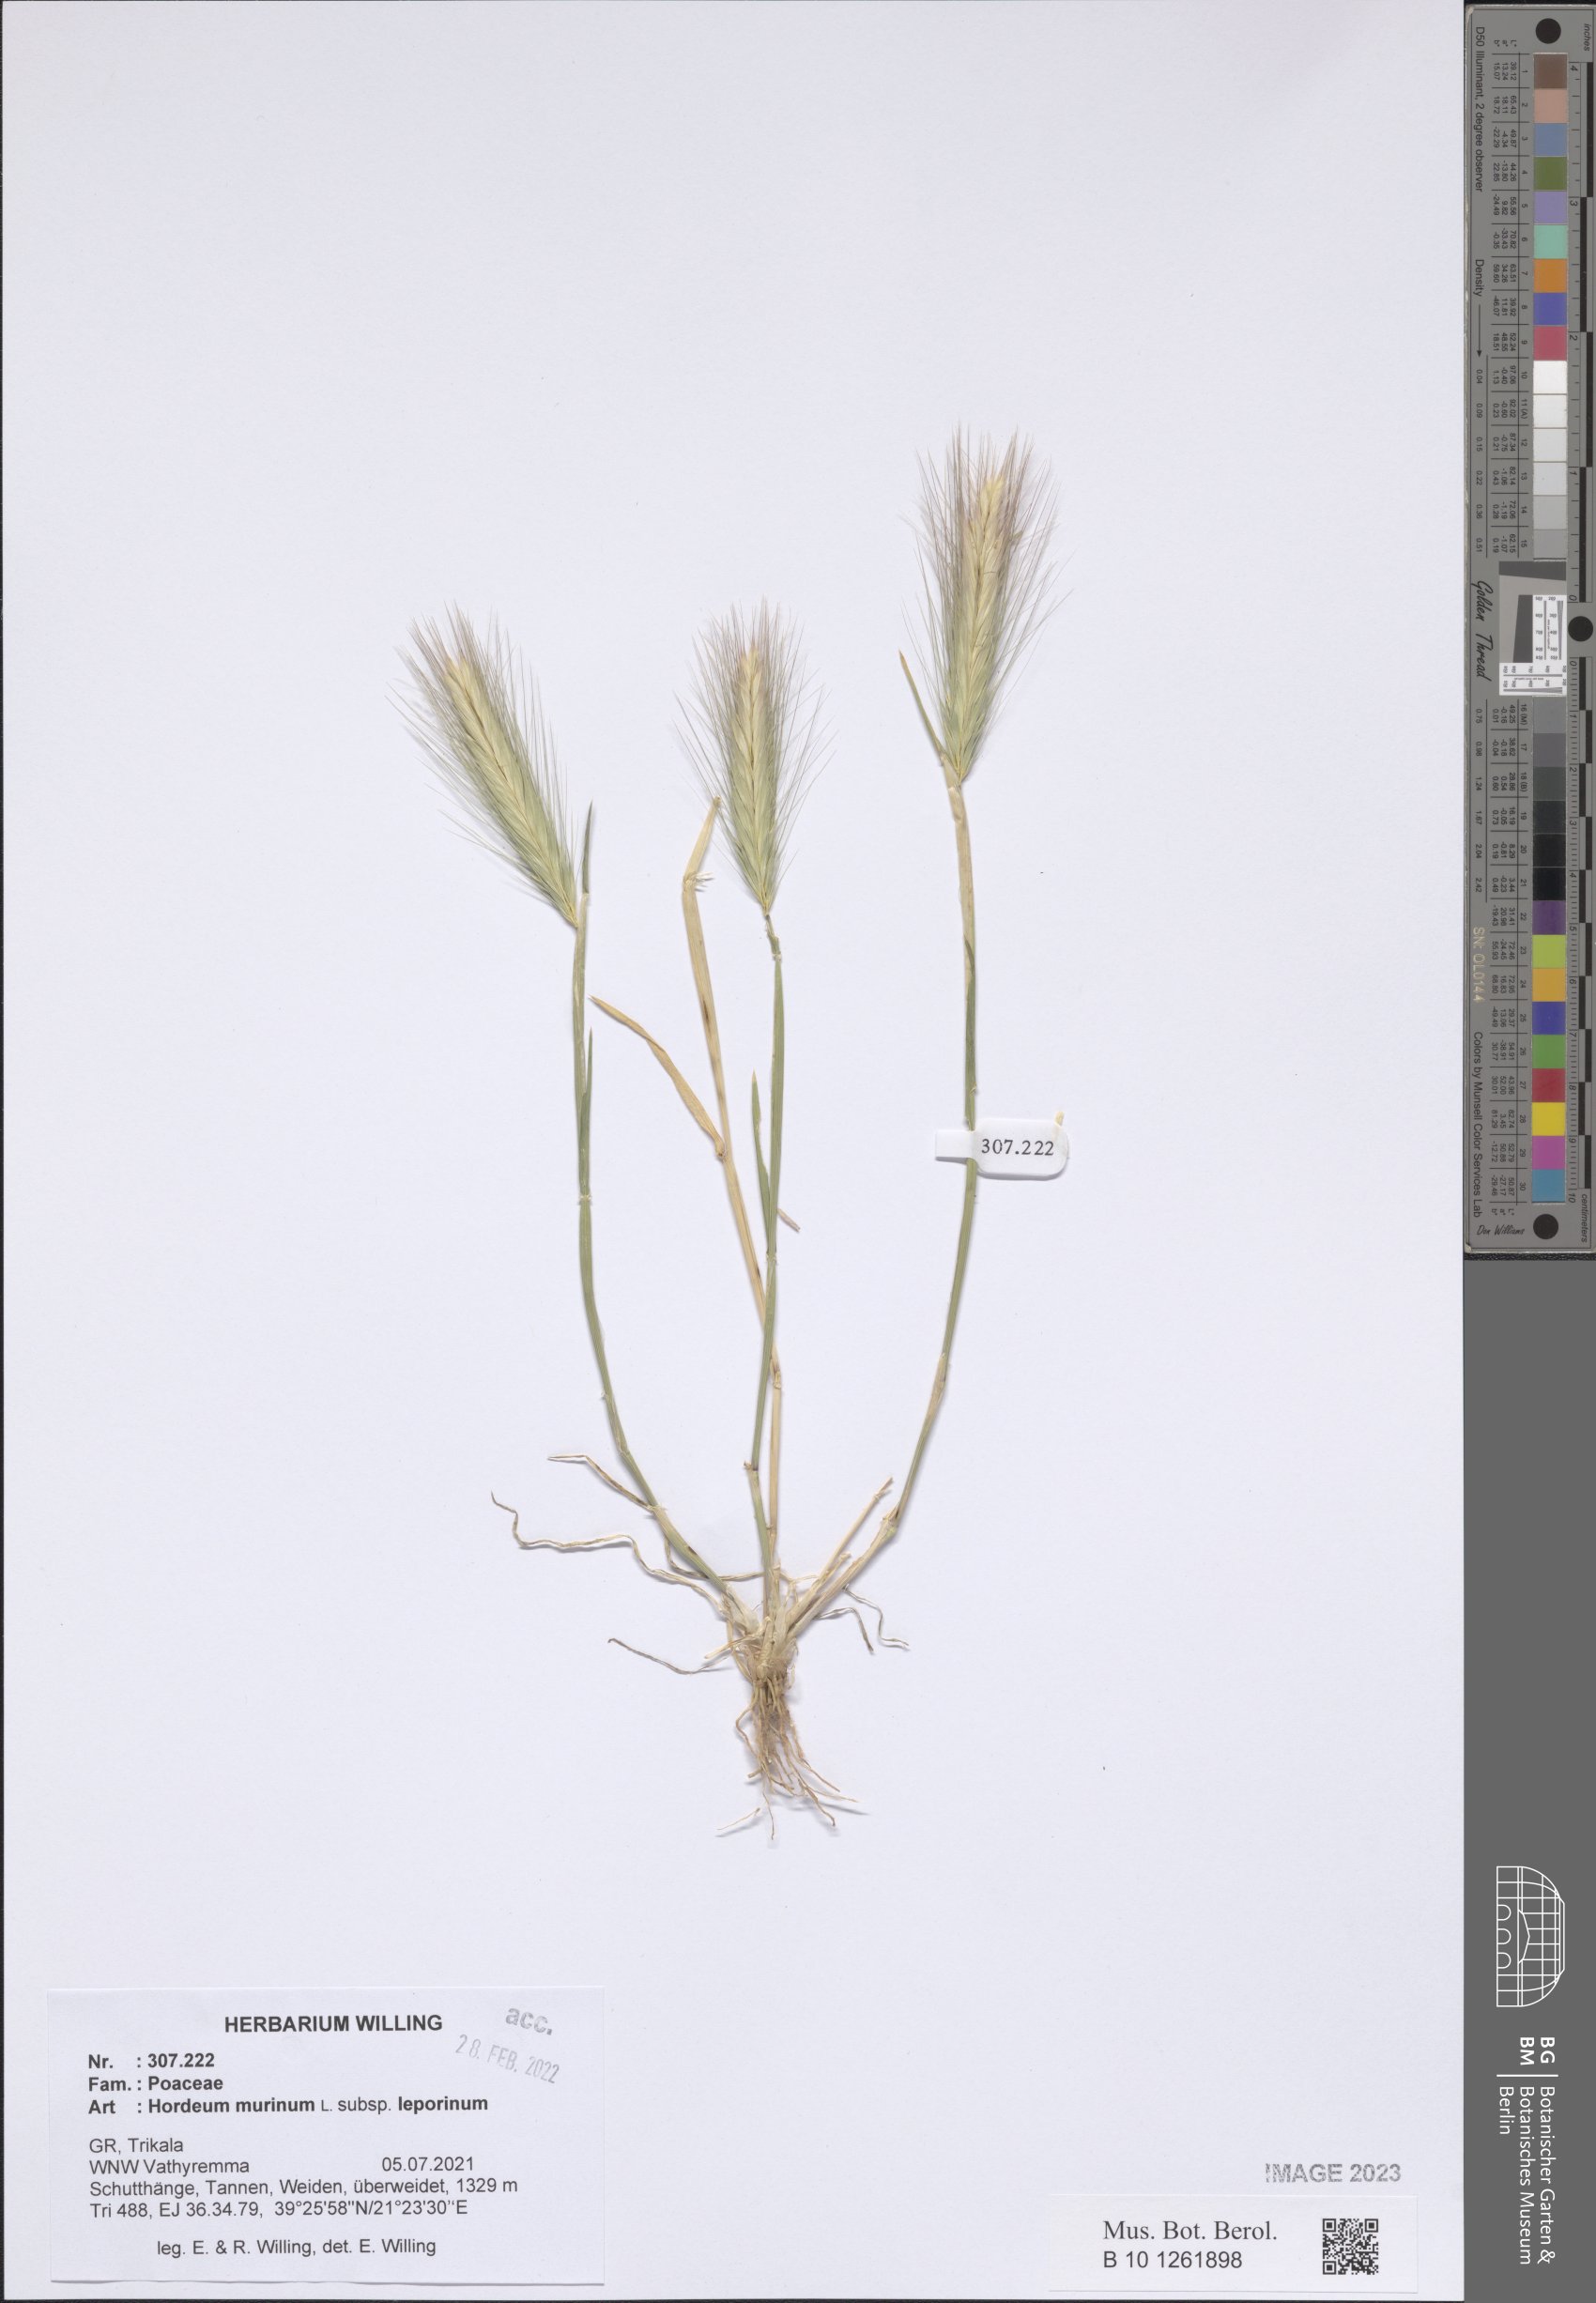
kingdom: Plantae
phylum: Tracheophyta
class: Liliopsida
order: Poales
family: Poaceae
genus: Hordeum
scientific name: Hordeum murinum
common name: Wall barley
